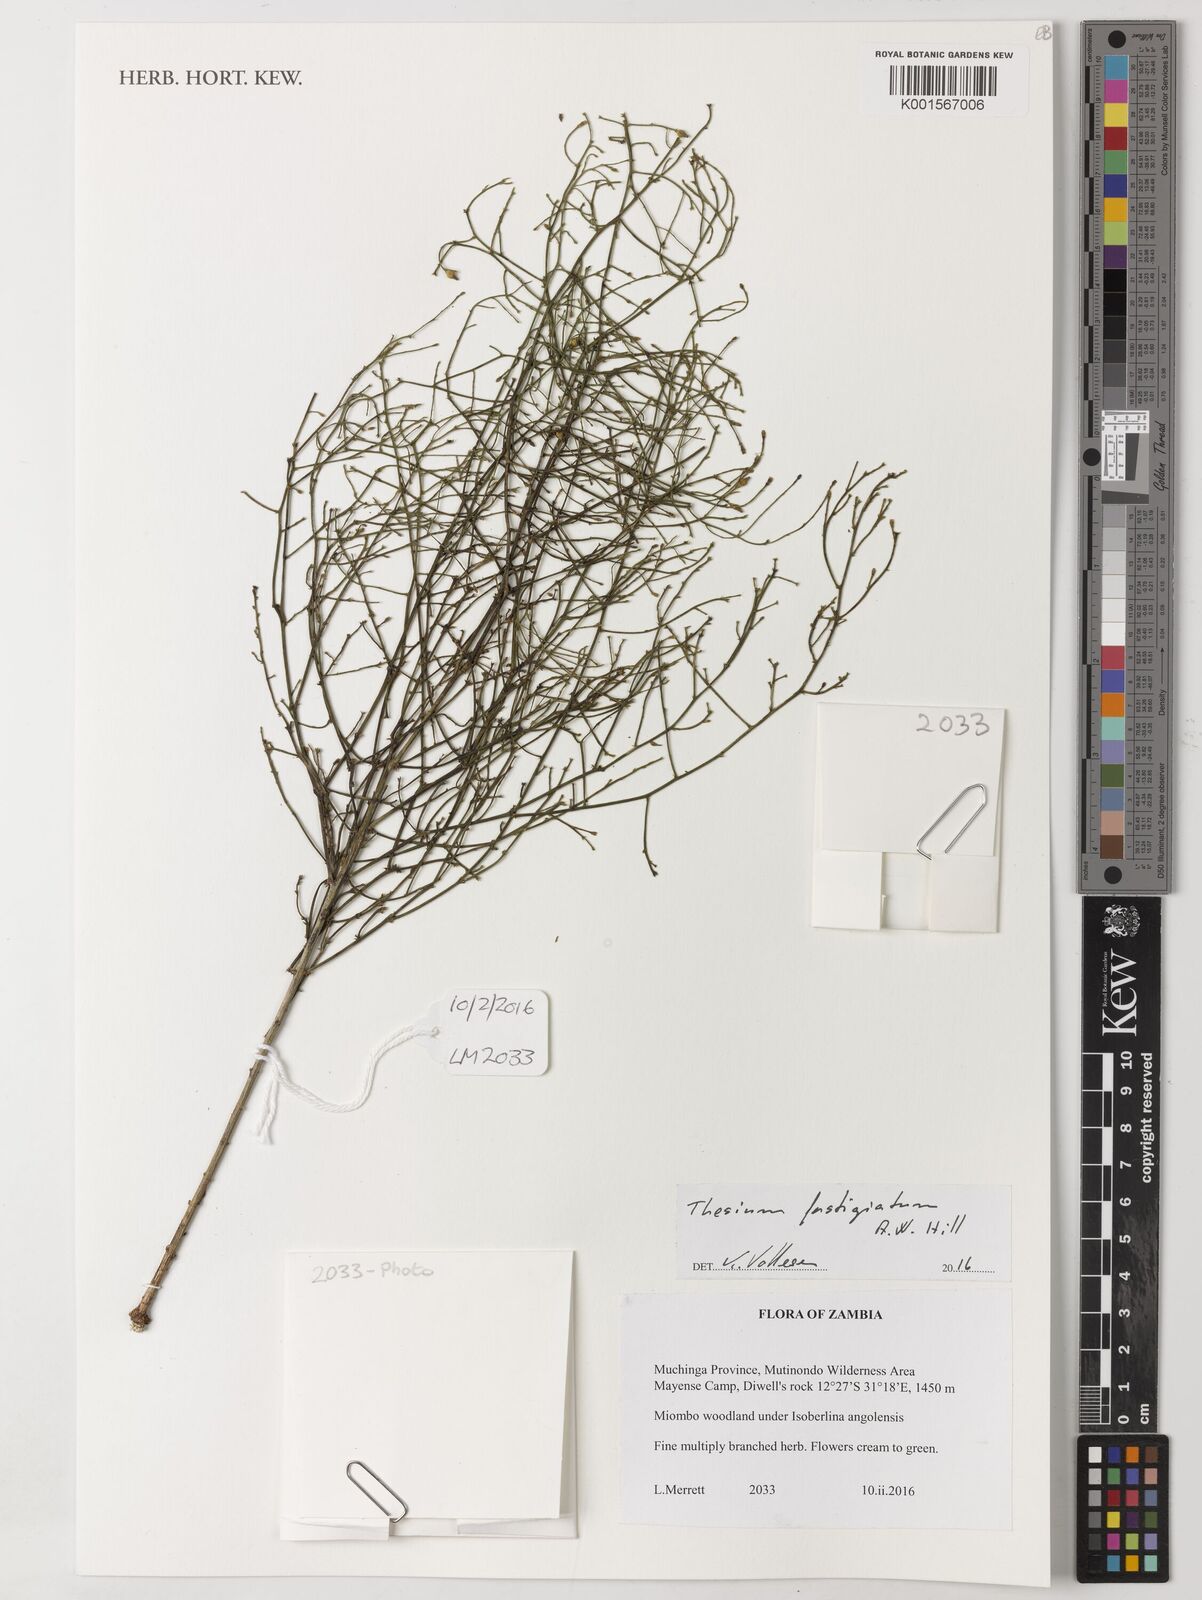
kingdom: Plantae
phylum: Tracheophyta
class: Magnoliopsida
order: Santalales
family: Thesiaceae
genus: Thesium
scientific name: Thesium fastigiatum
